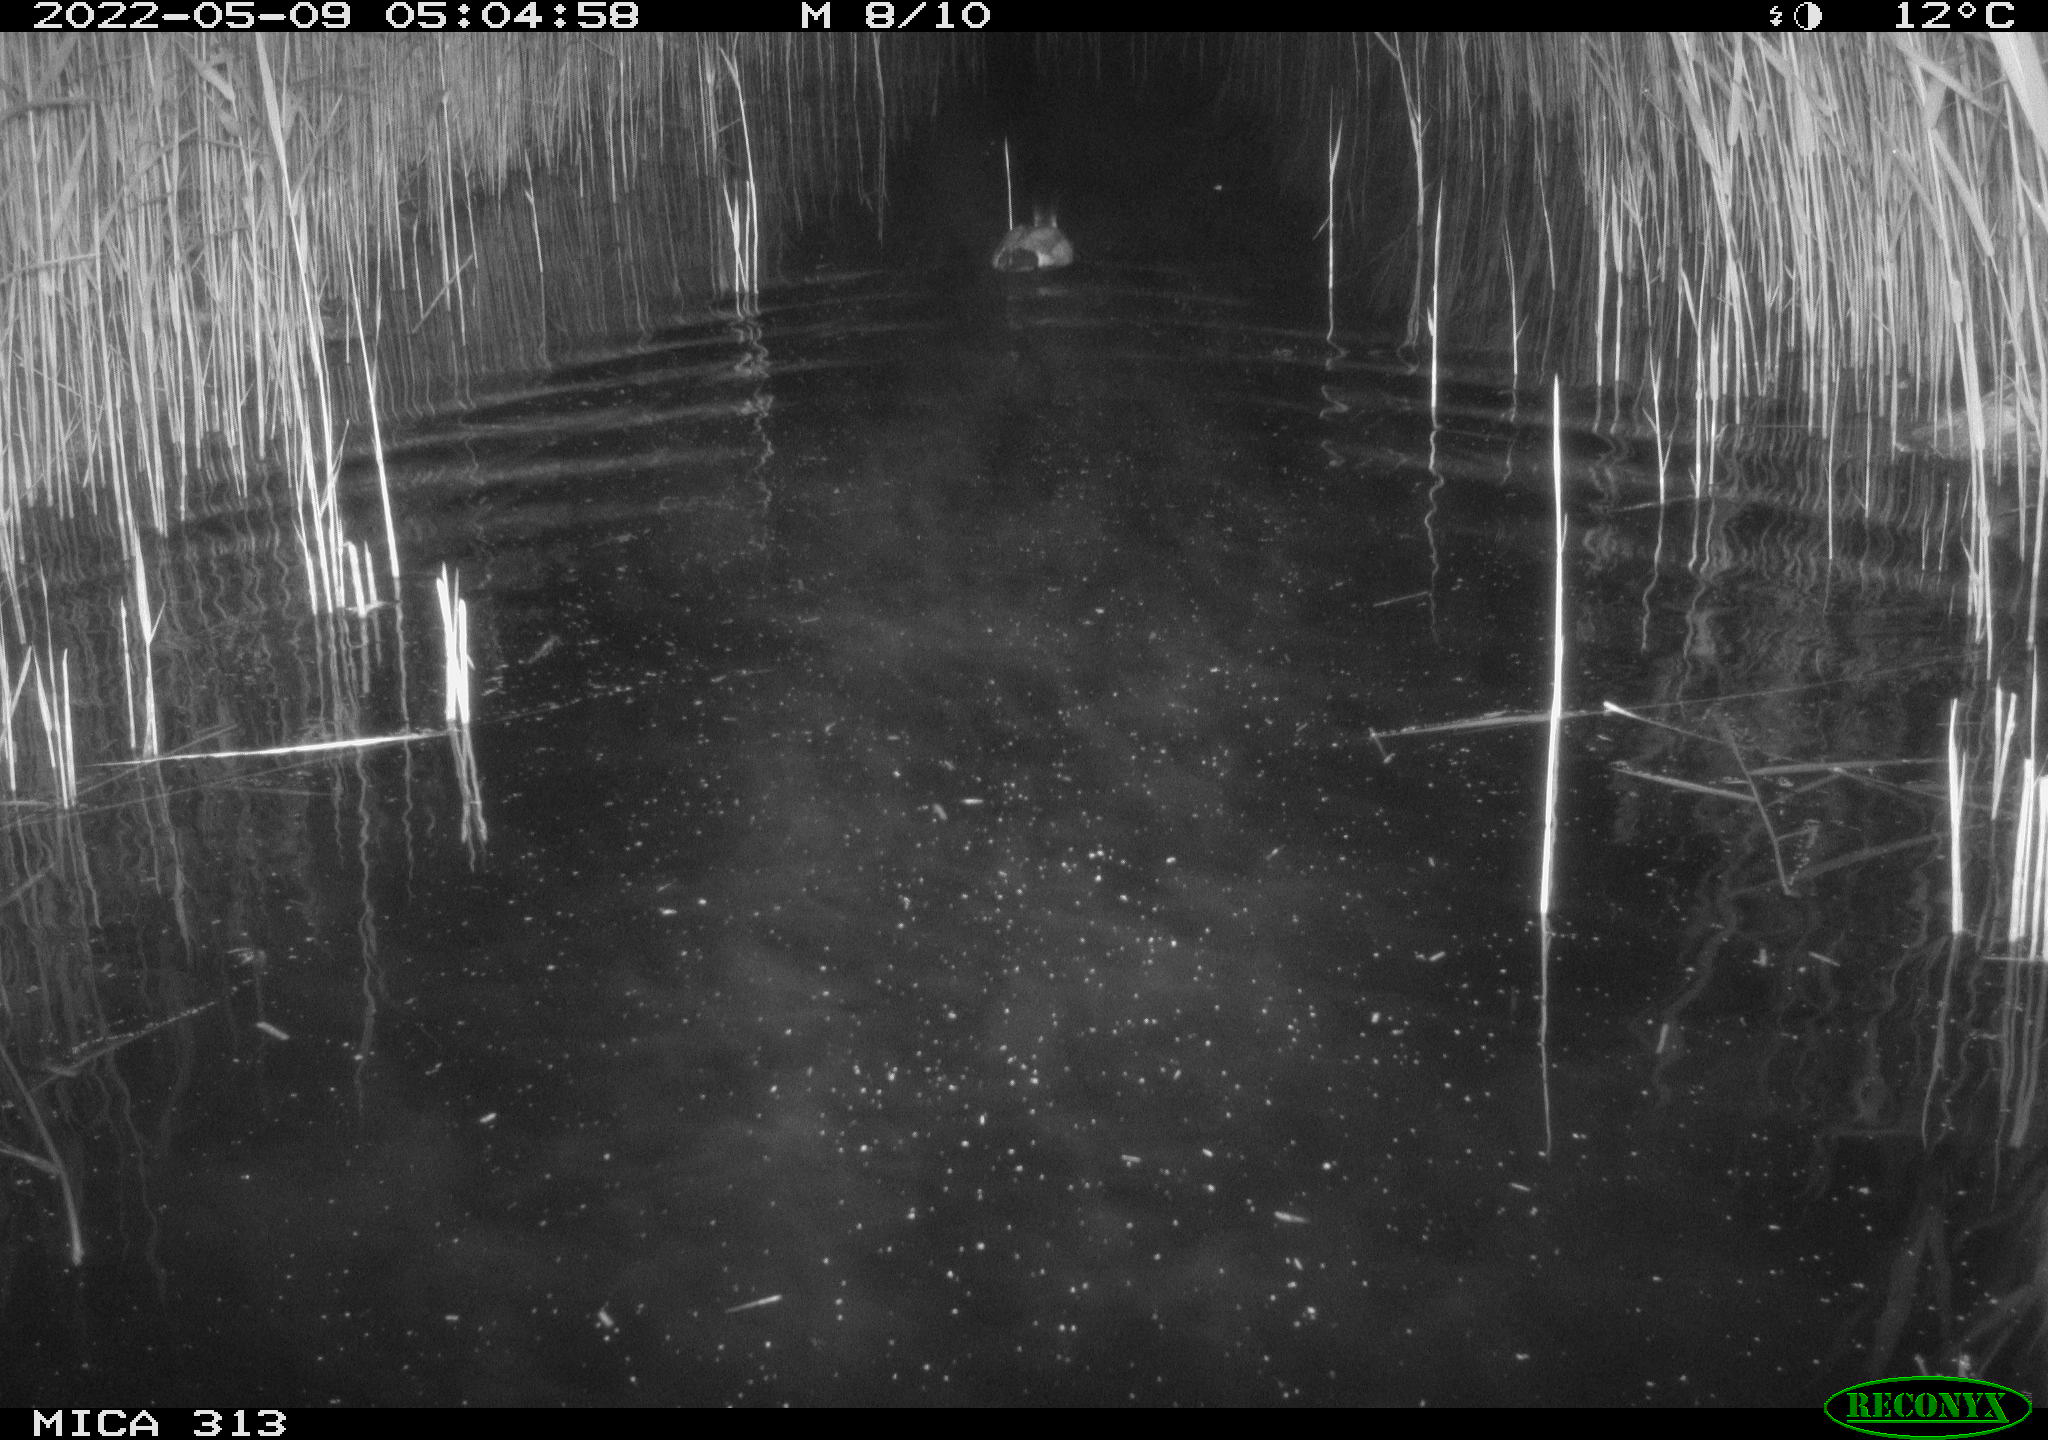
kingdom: Animalia
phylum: Chordata
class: Aves
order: Anseriformes
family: Anatidae
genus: Anas
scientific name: Anas platyrhynchos
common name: Mallard
